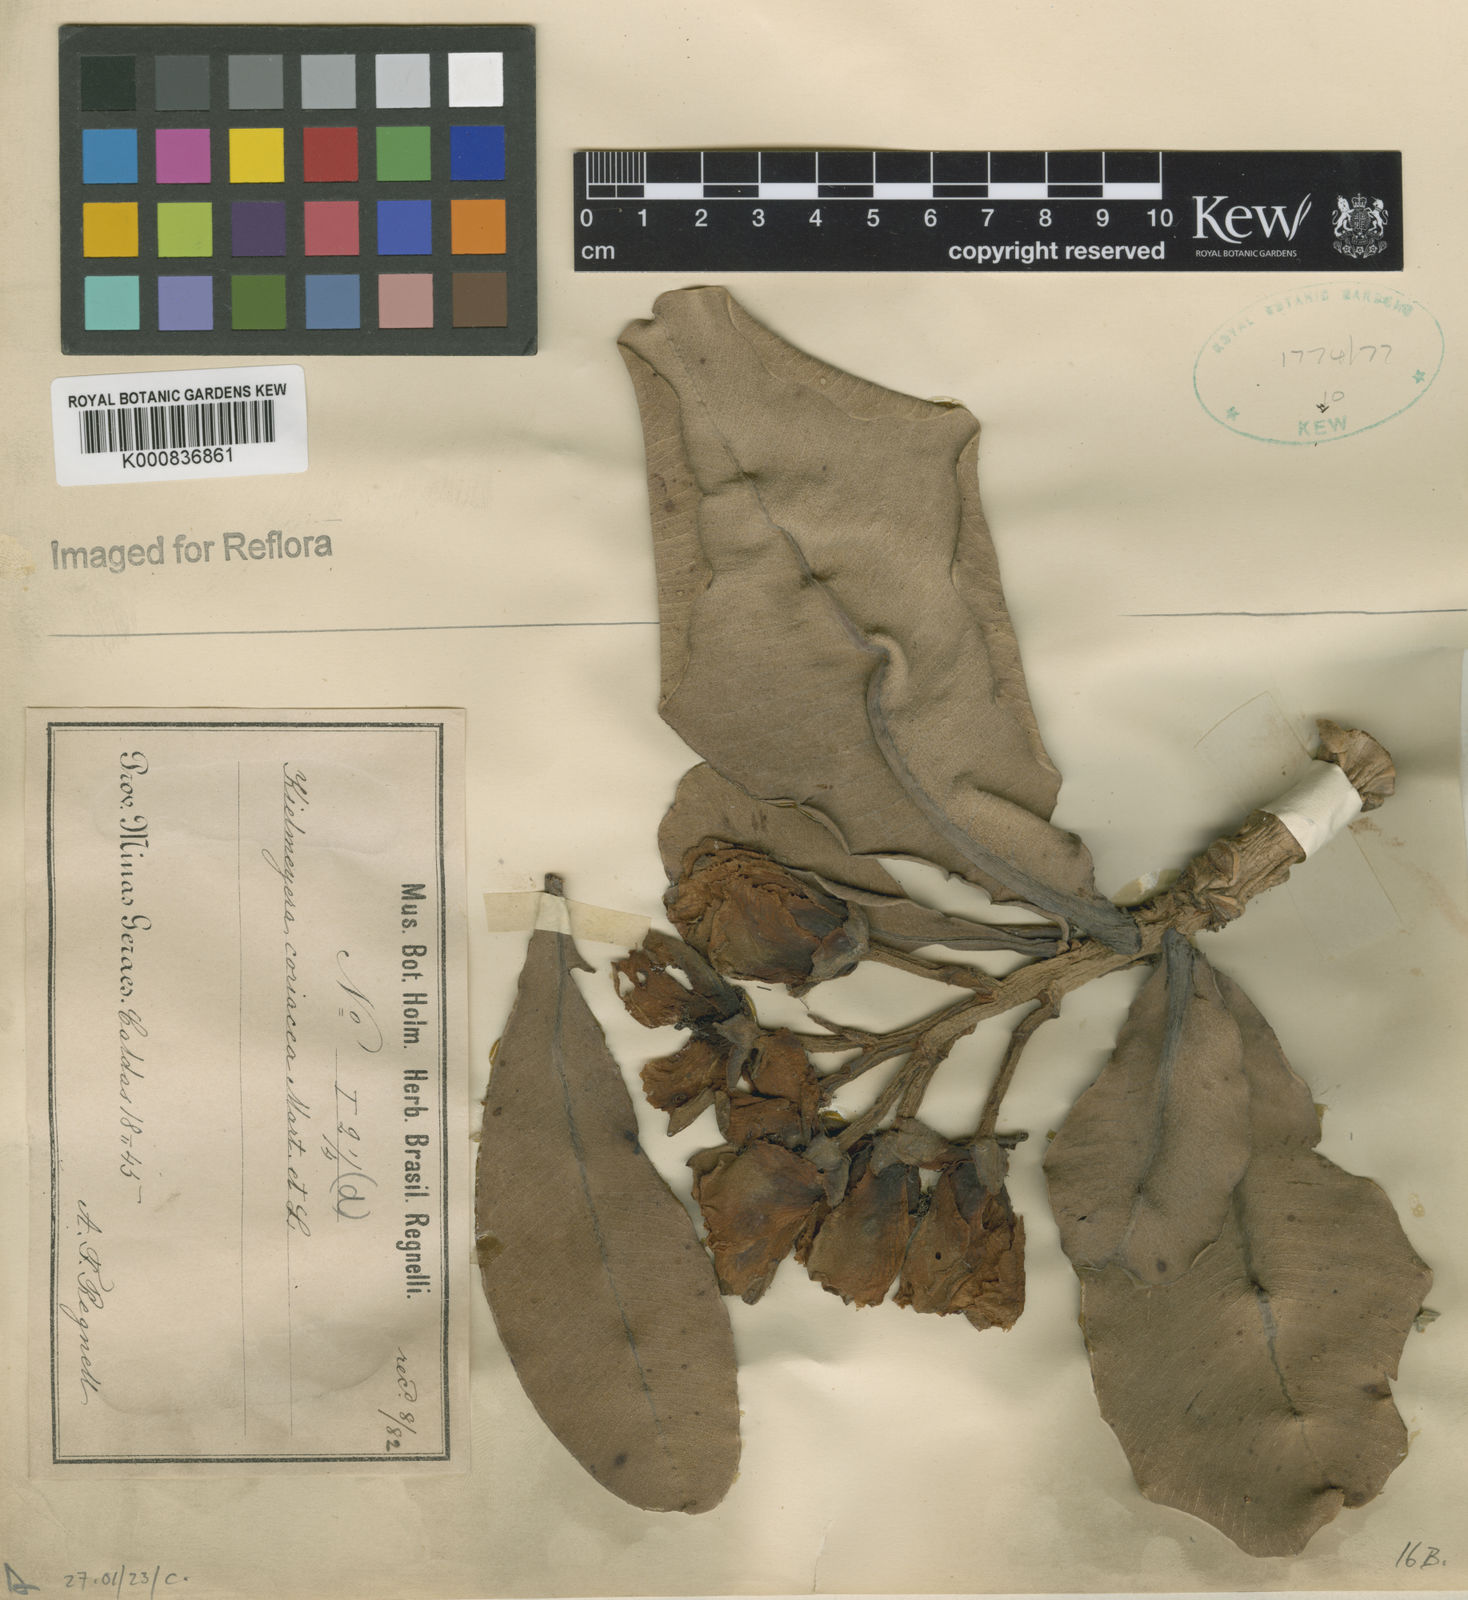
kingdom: Plantae
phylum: Tracheophyta
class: Magnoliopsida
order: Malpighiales
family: Calophyllaceae
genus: Kielmeyera
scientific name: Kielmeyera coriacea
